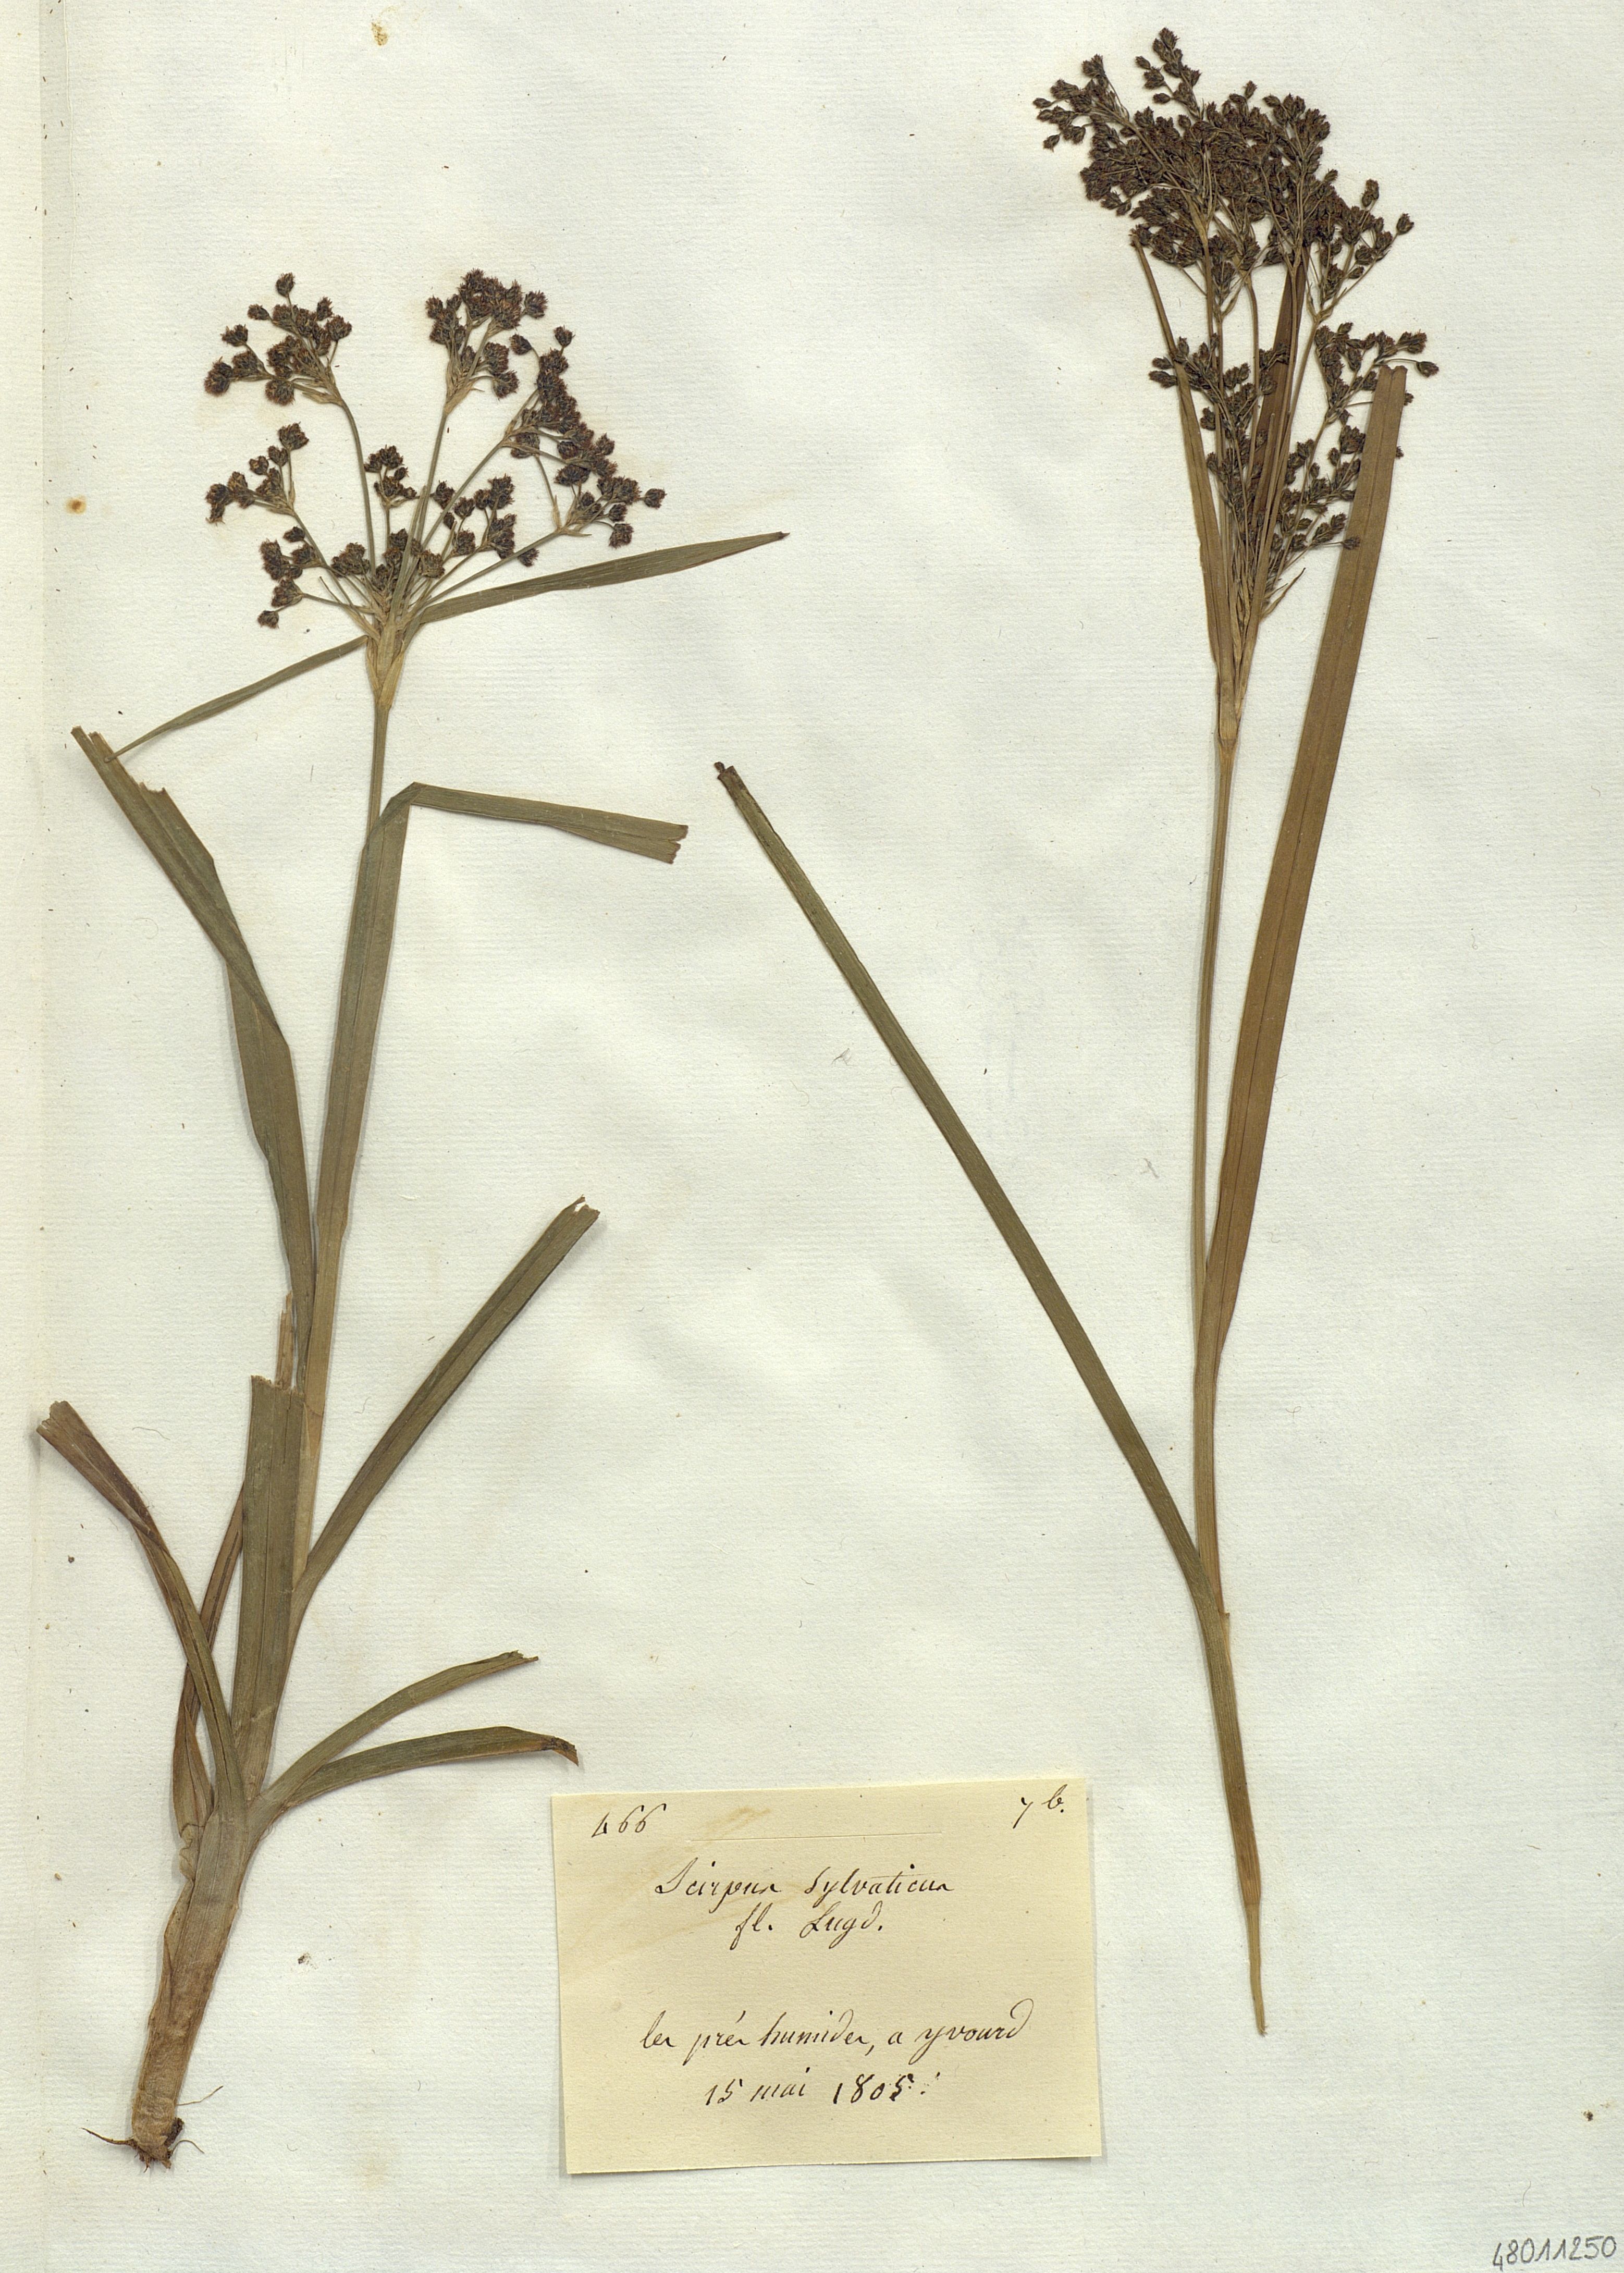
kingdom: Plantae
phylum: Tracheophyta
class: Liliopsida
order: Poales
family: Cyperaceae
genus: Scirpus
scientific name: Scirpus sylvaticus
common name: Wood club-rush
